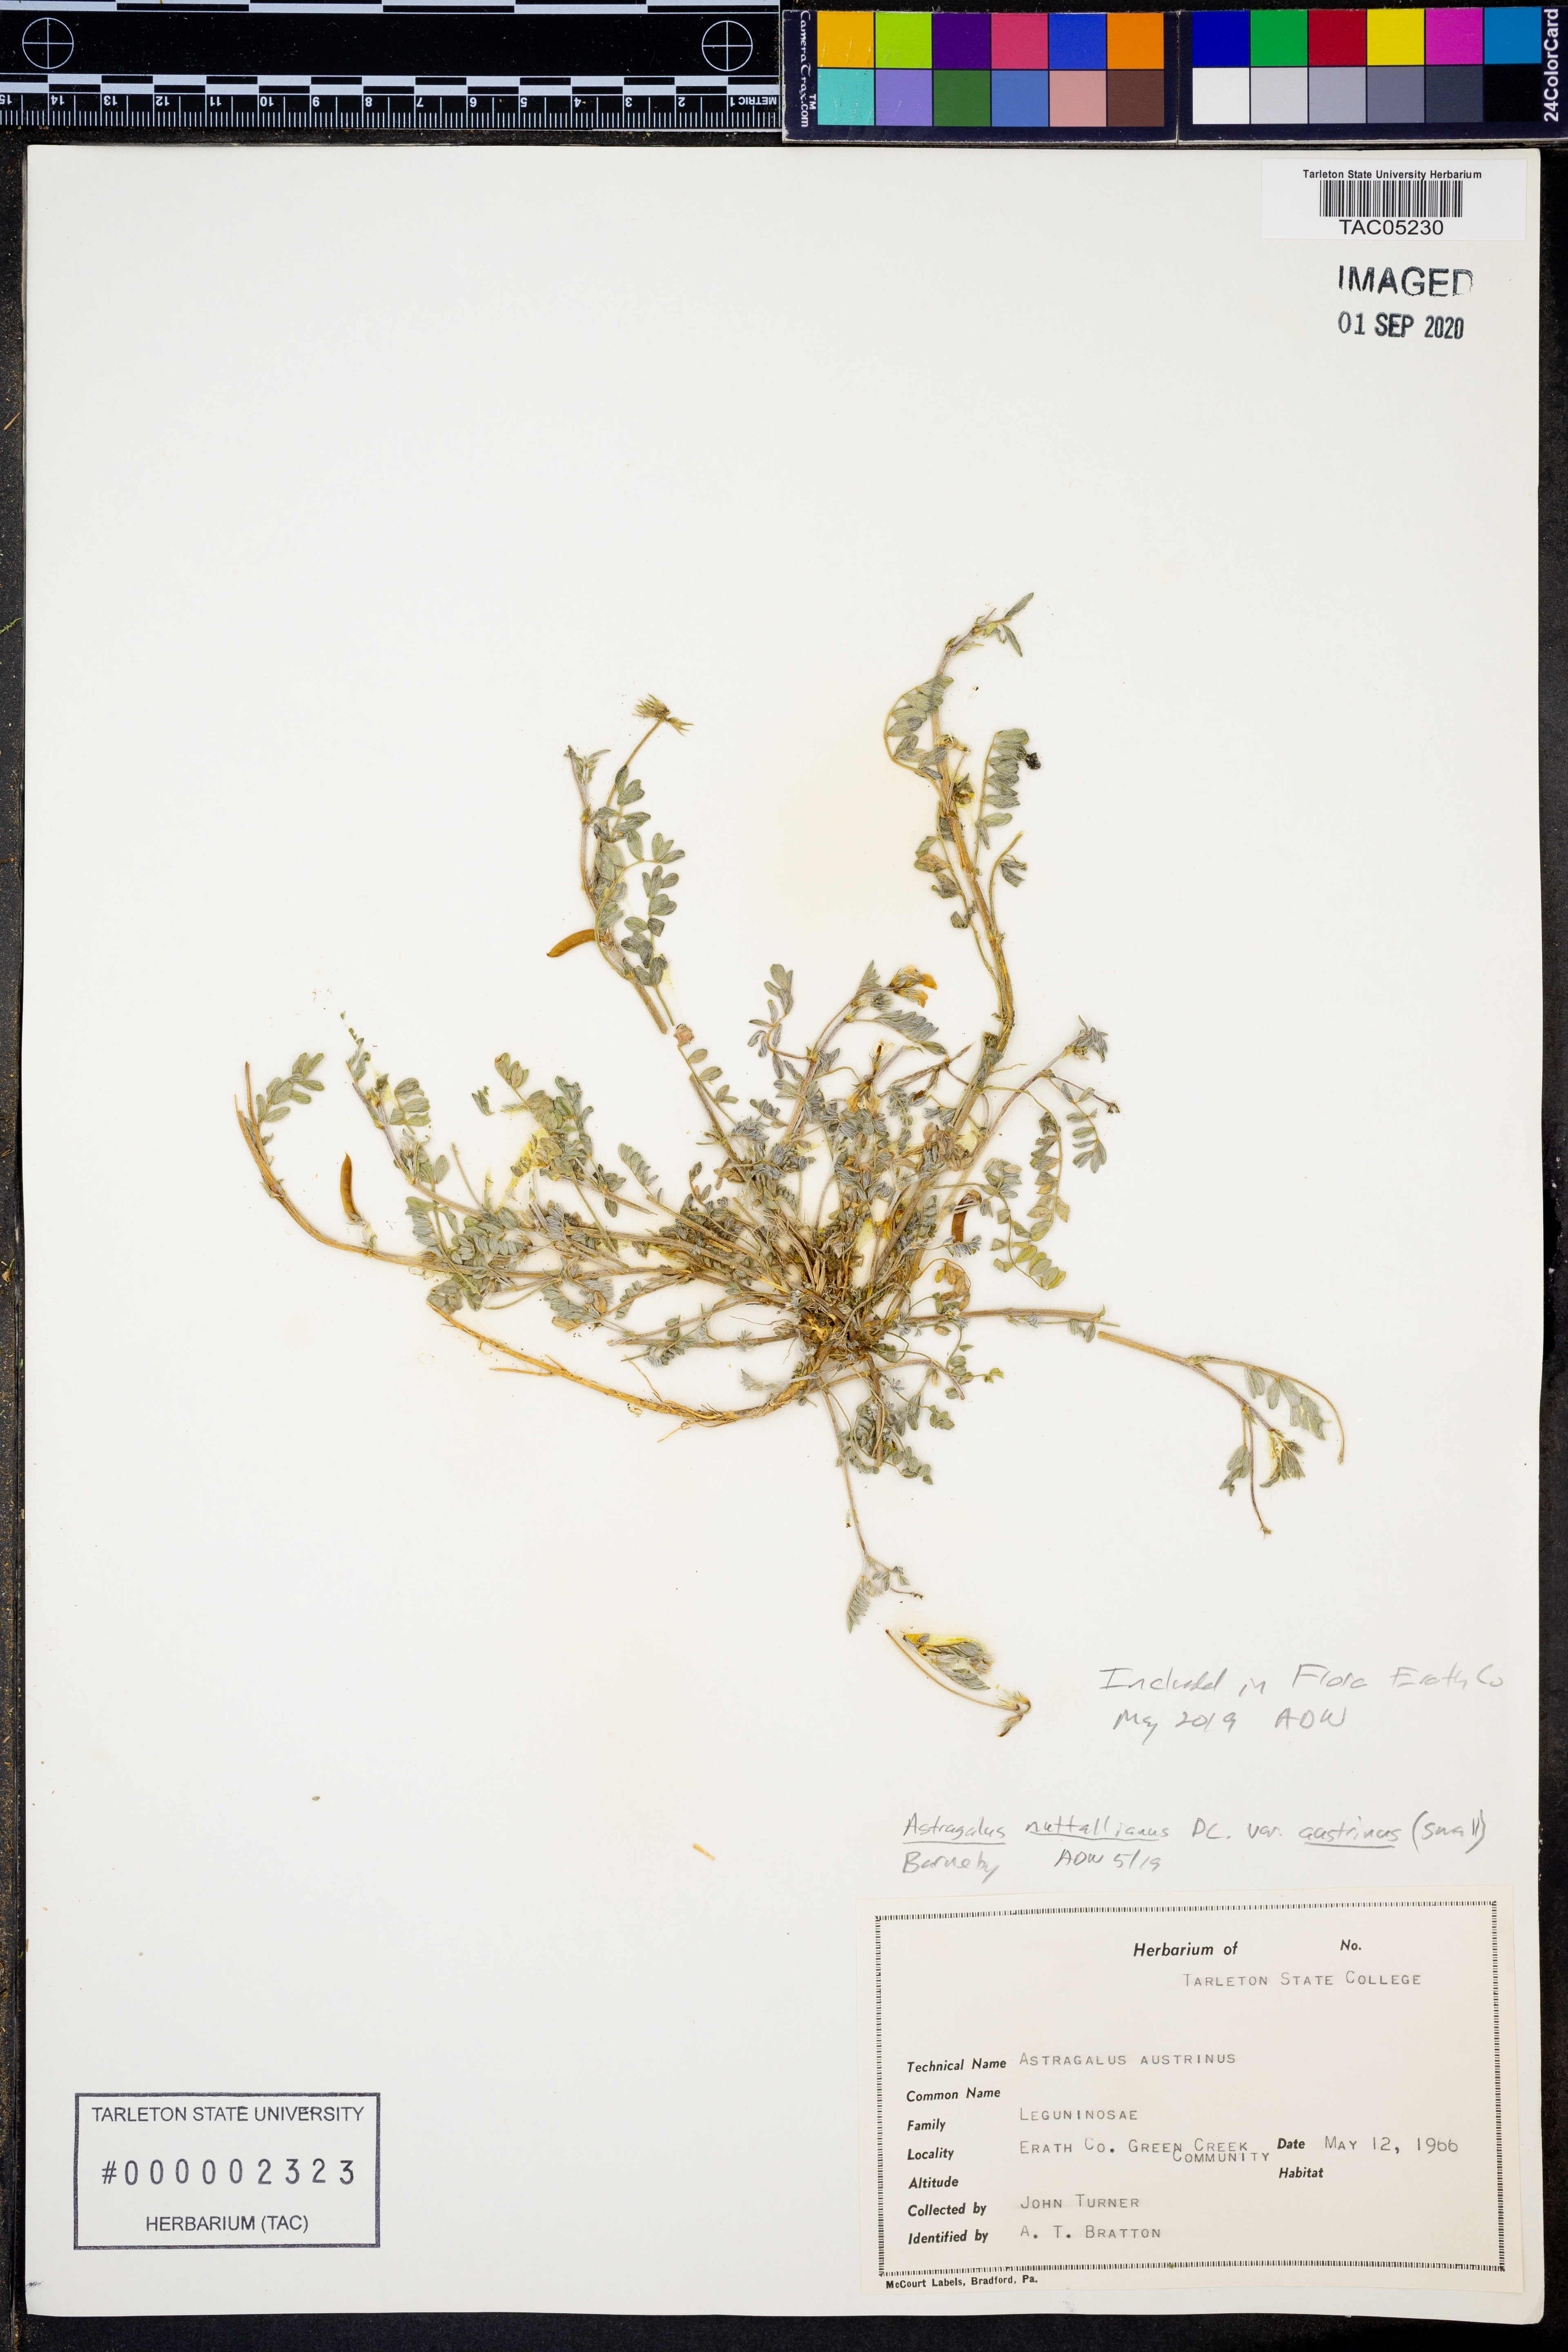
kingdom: Plantae
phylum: Tracheophyta
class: Magnoliopsida
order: Fabales
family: Fabaceae
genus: Astragalus
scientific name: Astragalus nuttallianus
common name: Smallflowered milkvetch
